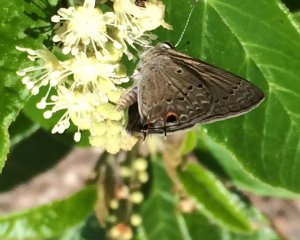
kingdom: Animalia
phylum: Arthropoda
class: Insecta
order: Lepidoptera
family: Lycaenidae
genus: Callicista
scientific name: Callicista columella
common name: Mallow Scrub-Hairstreak
